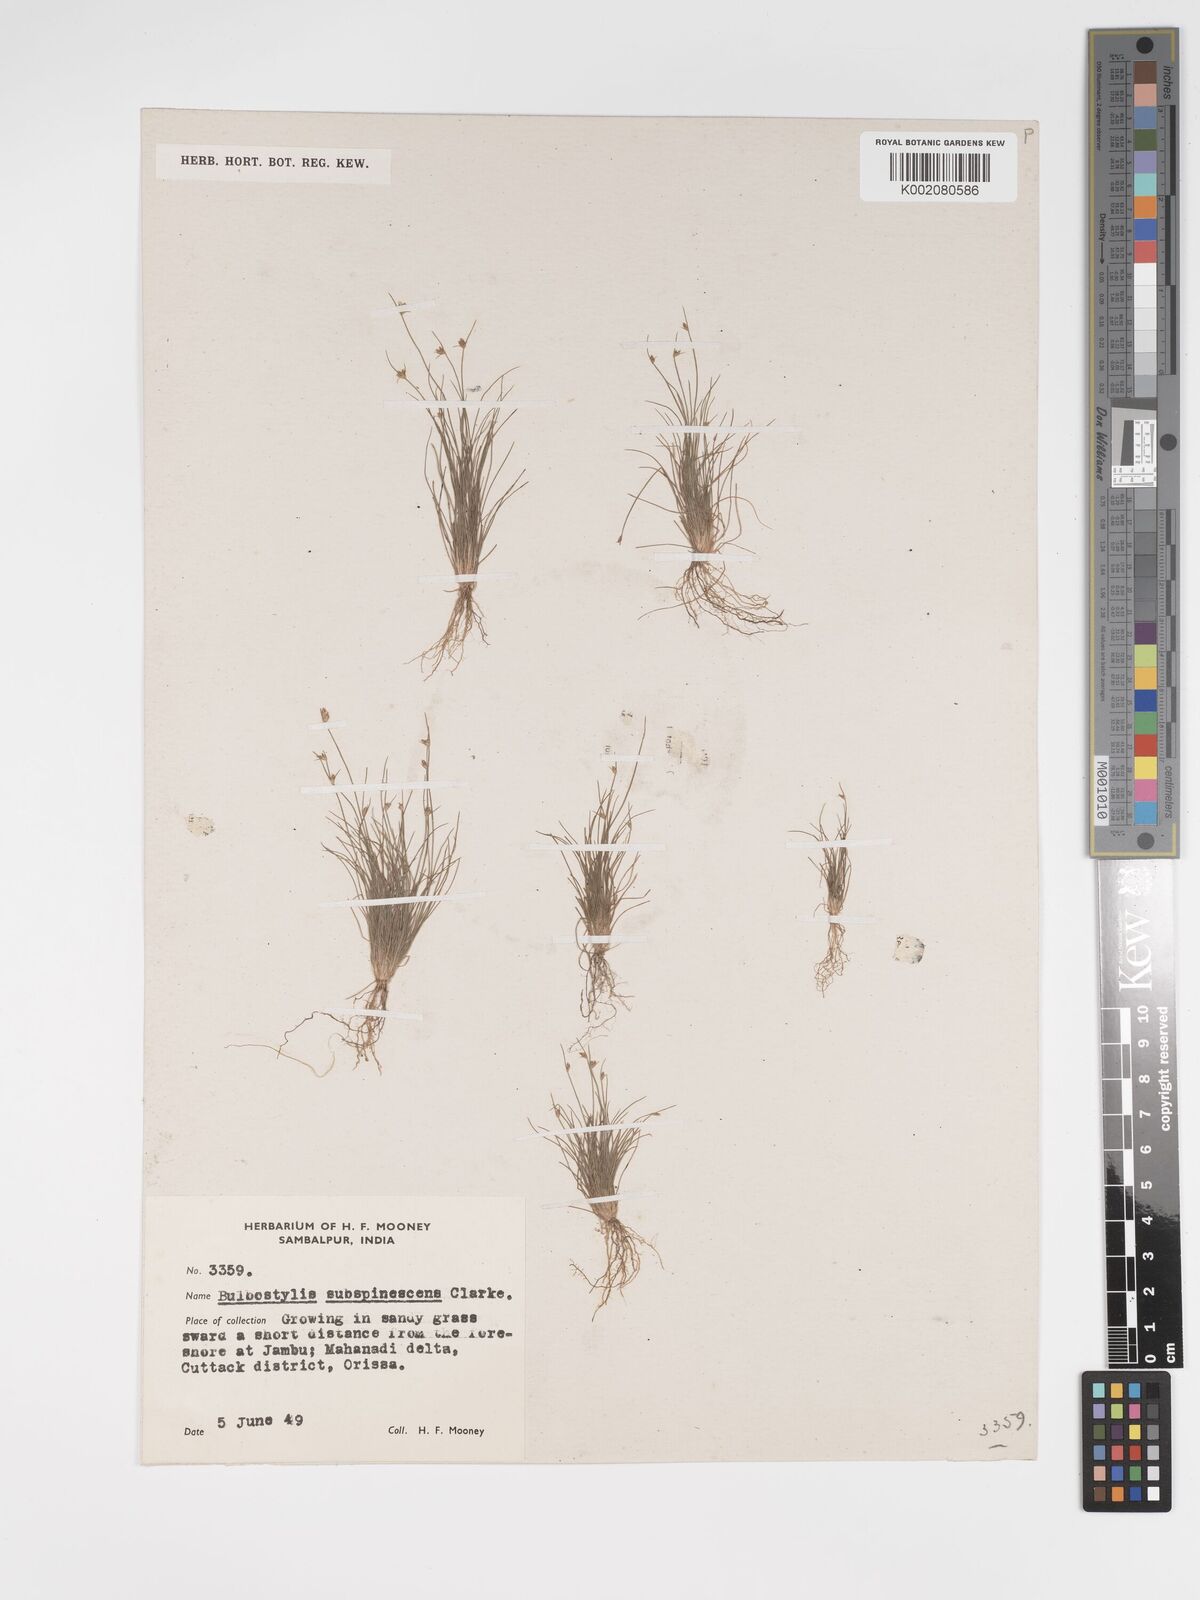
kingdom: Plantae
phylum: Tracheophyta
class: Liliopsida
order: Poales
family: Cyperaceae
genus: Bulbostylis
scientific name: Bulbostylis
